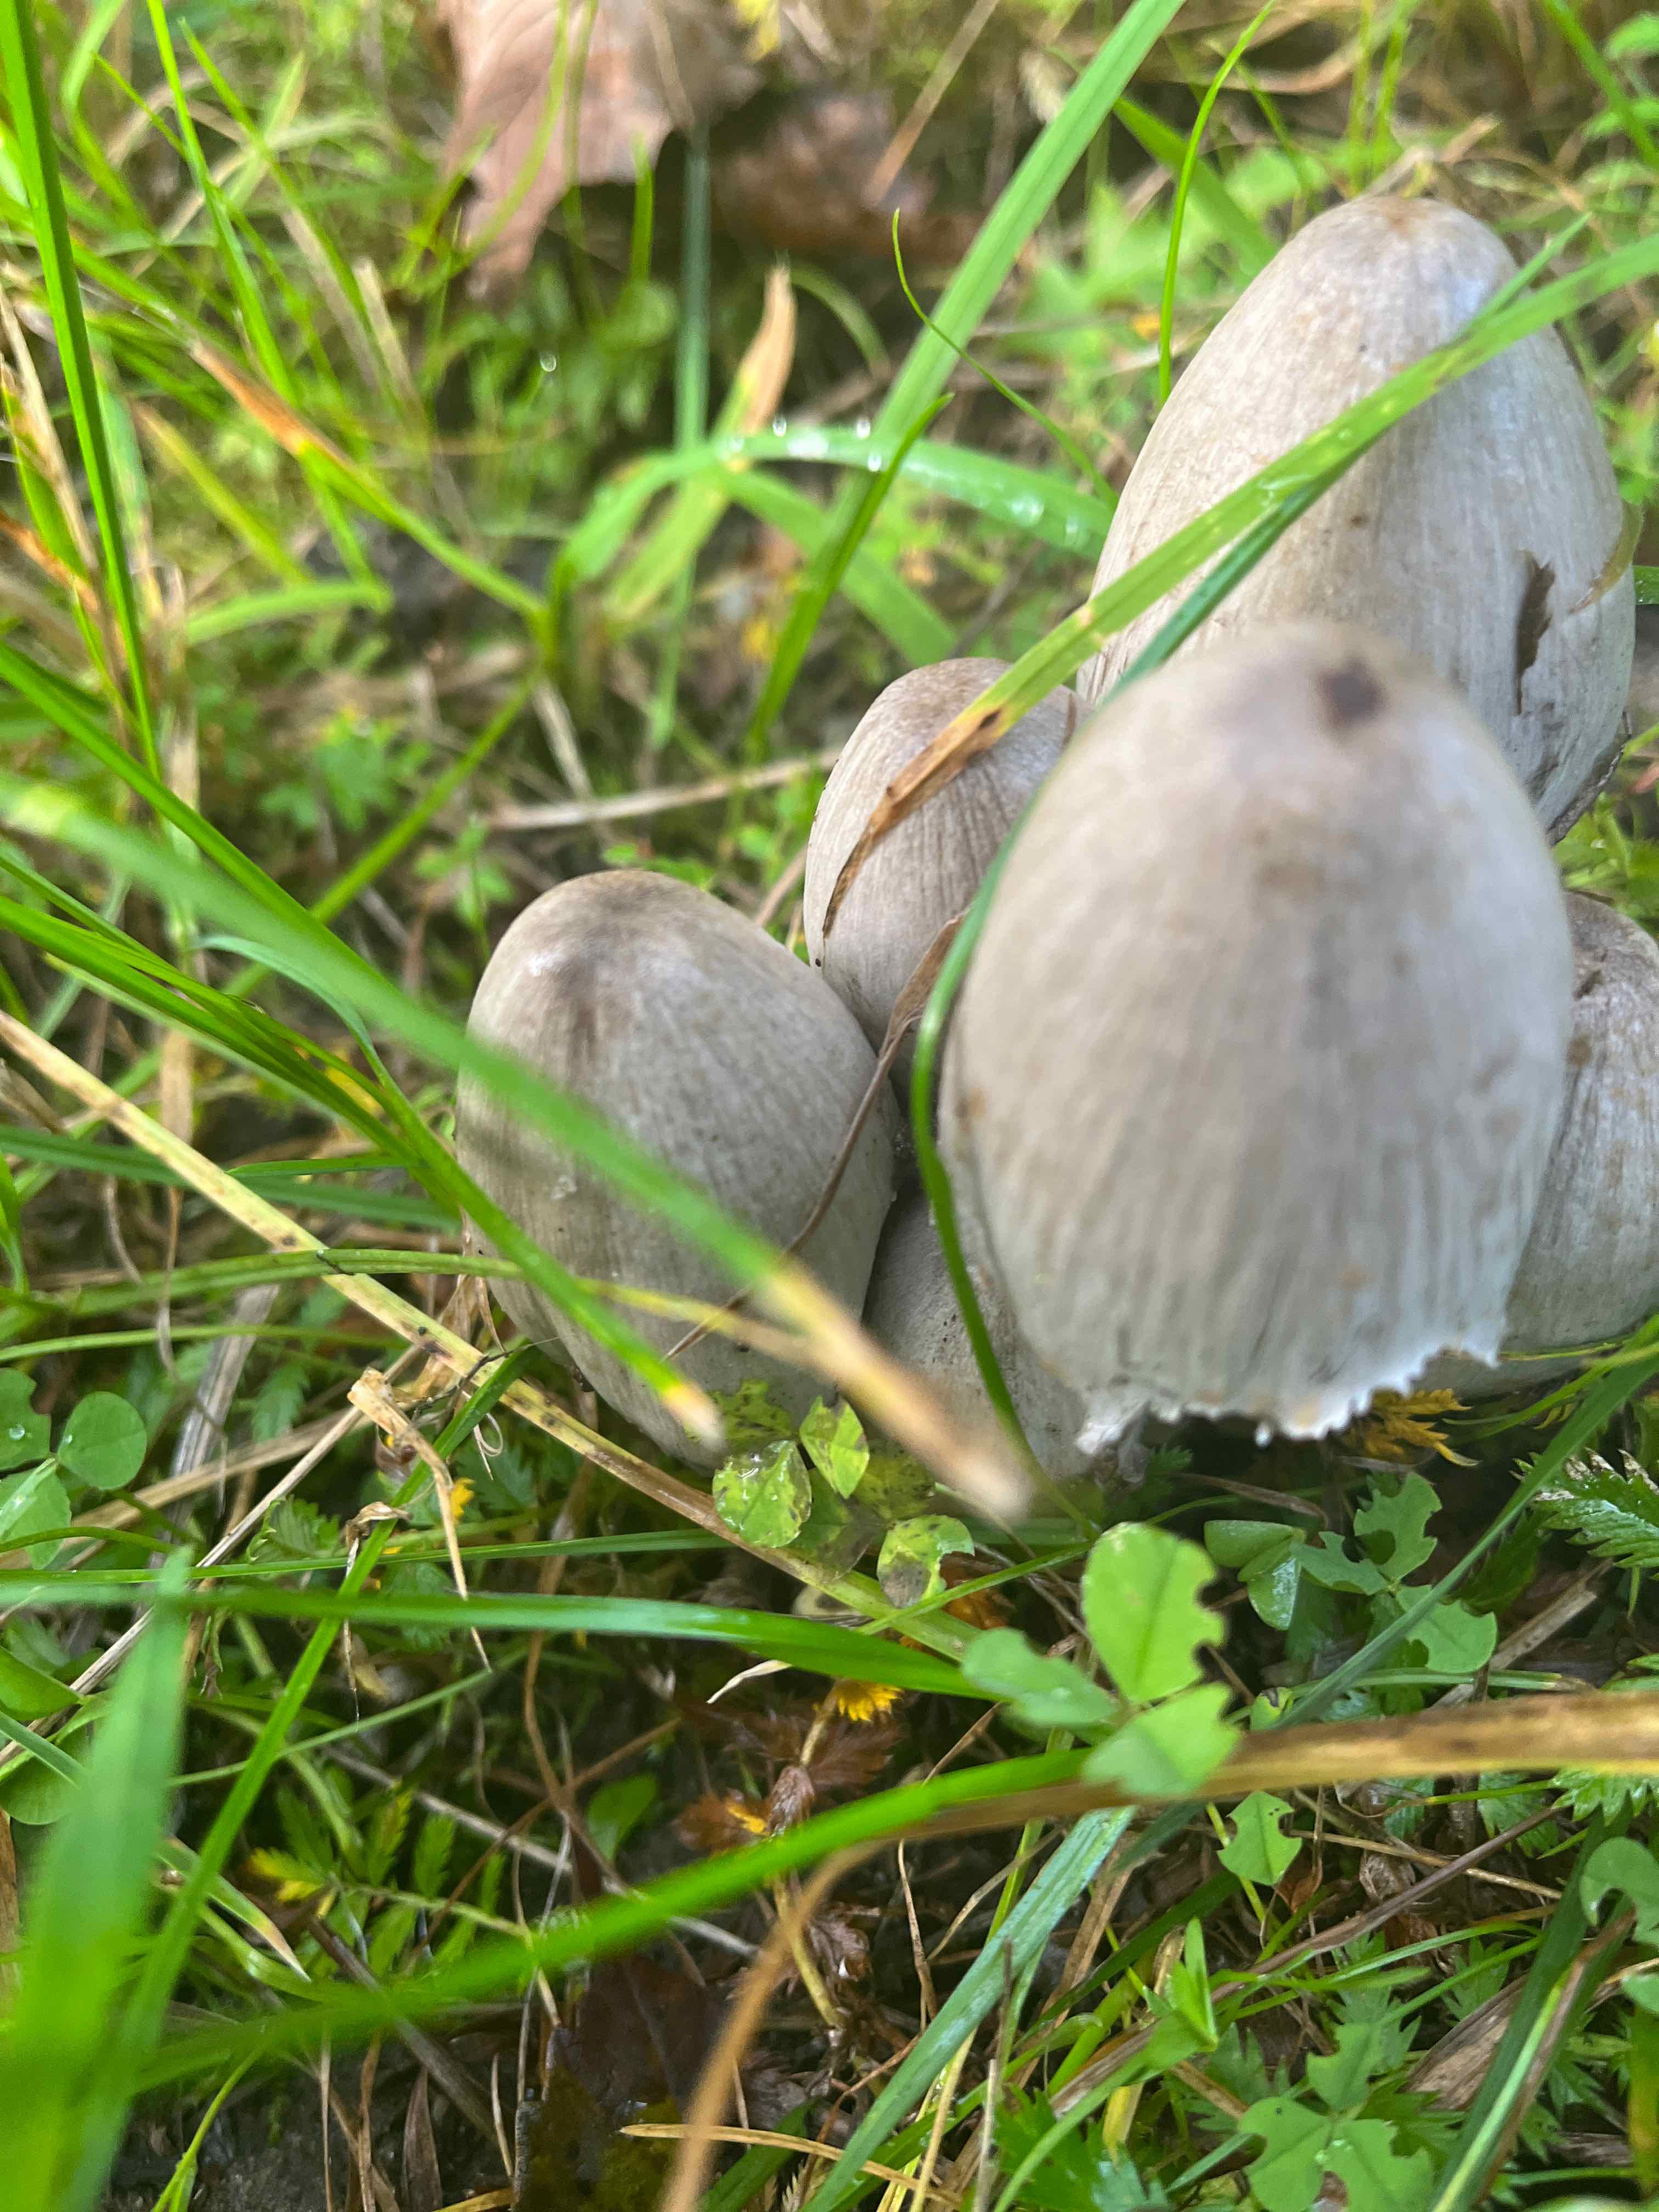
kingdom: Fungi
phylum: Basidiomycota
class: Agaricomycetes
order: Agaricales
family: Psathyrellaceae
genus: Coprinopsis
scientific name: Coprinopsis atramentaria
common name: almindelig blækhat
